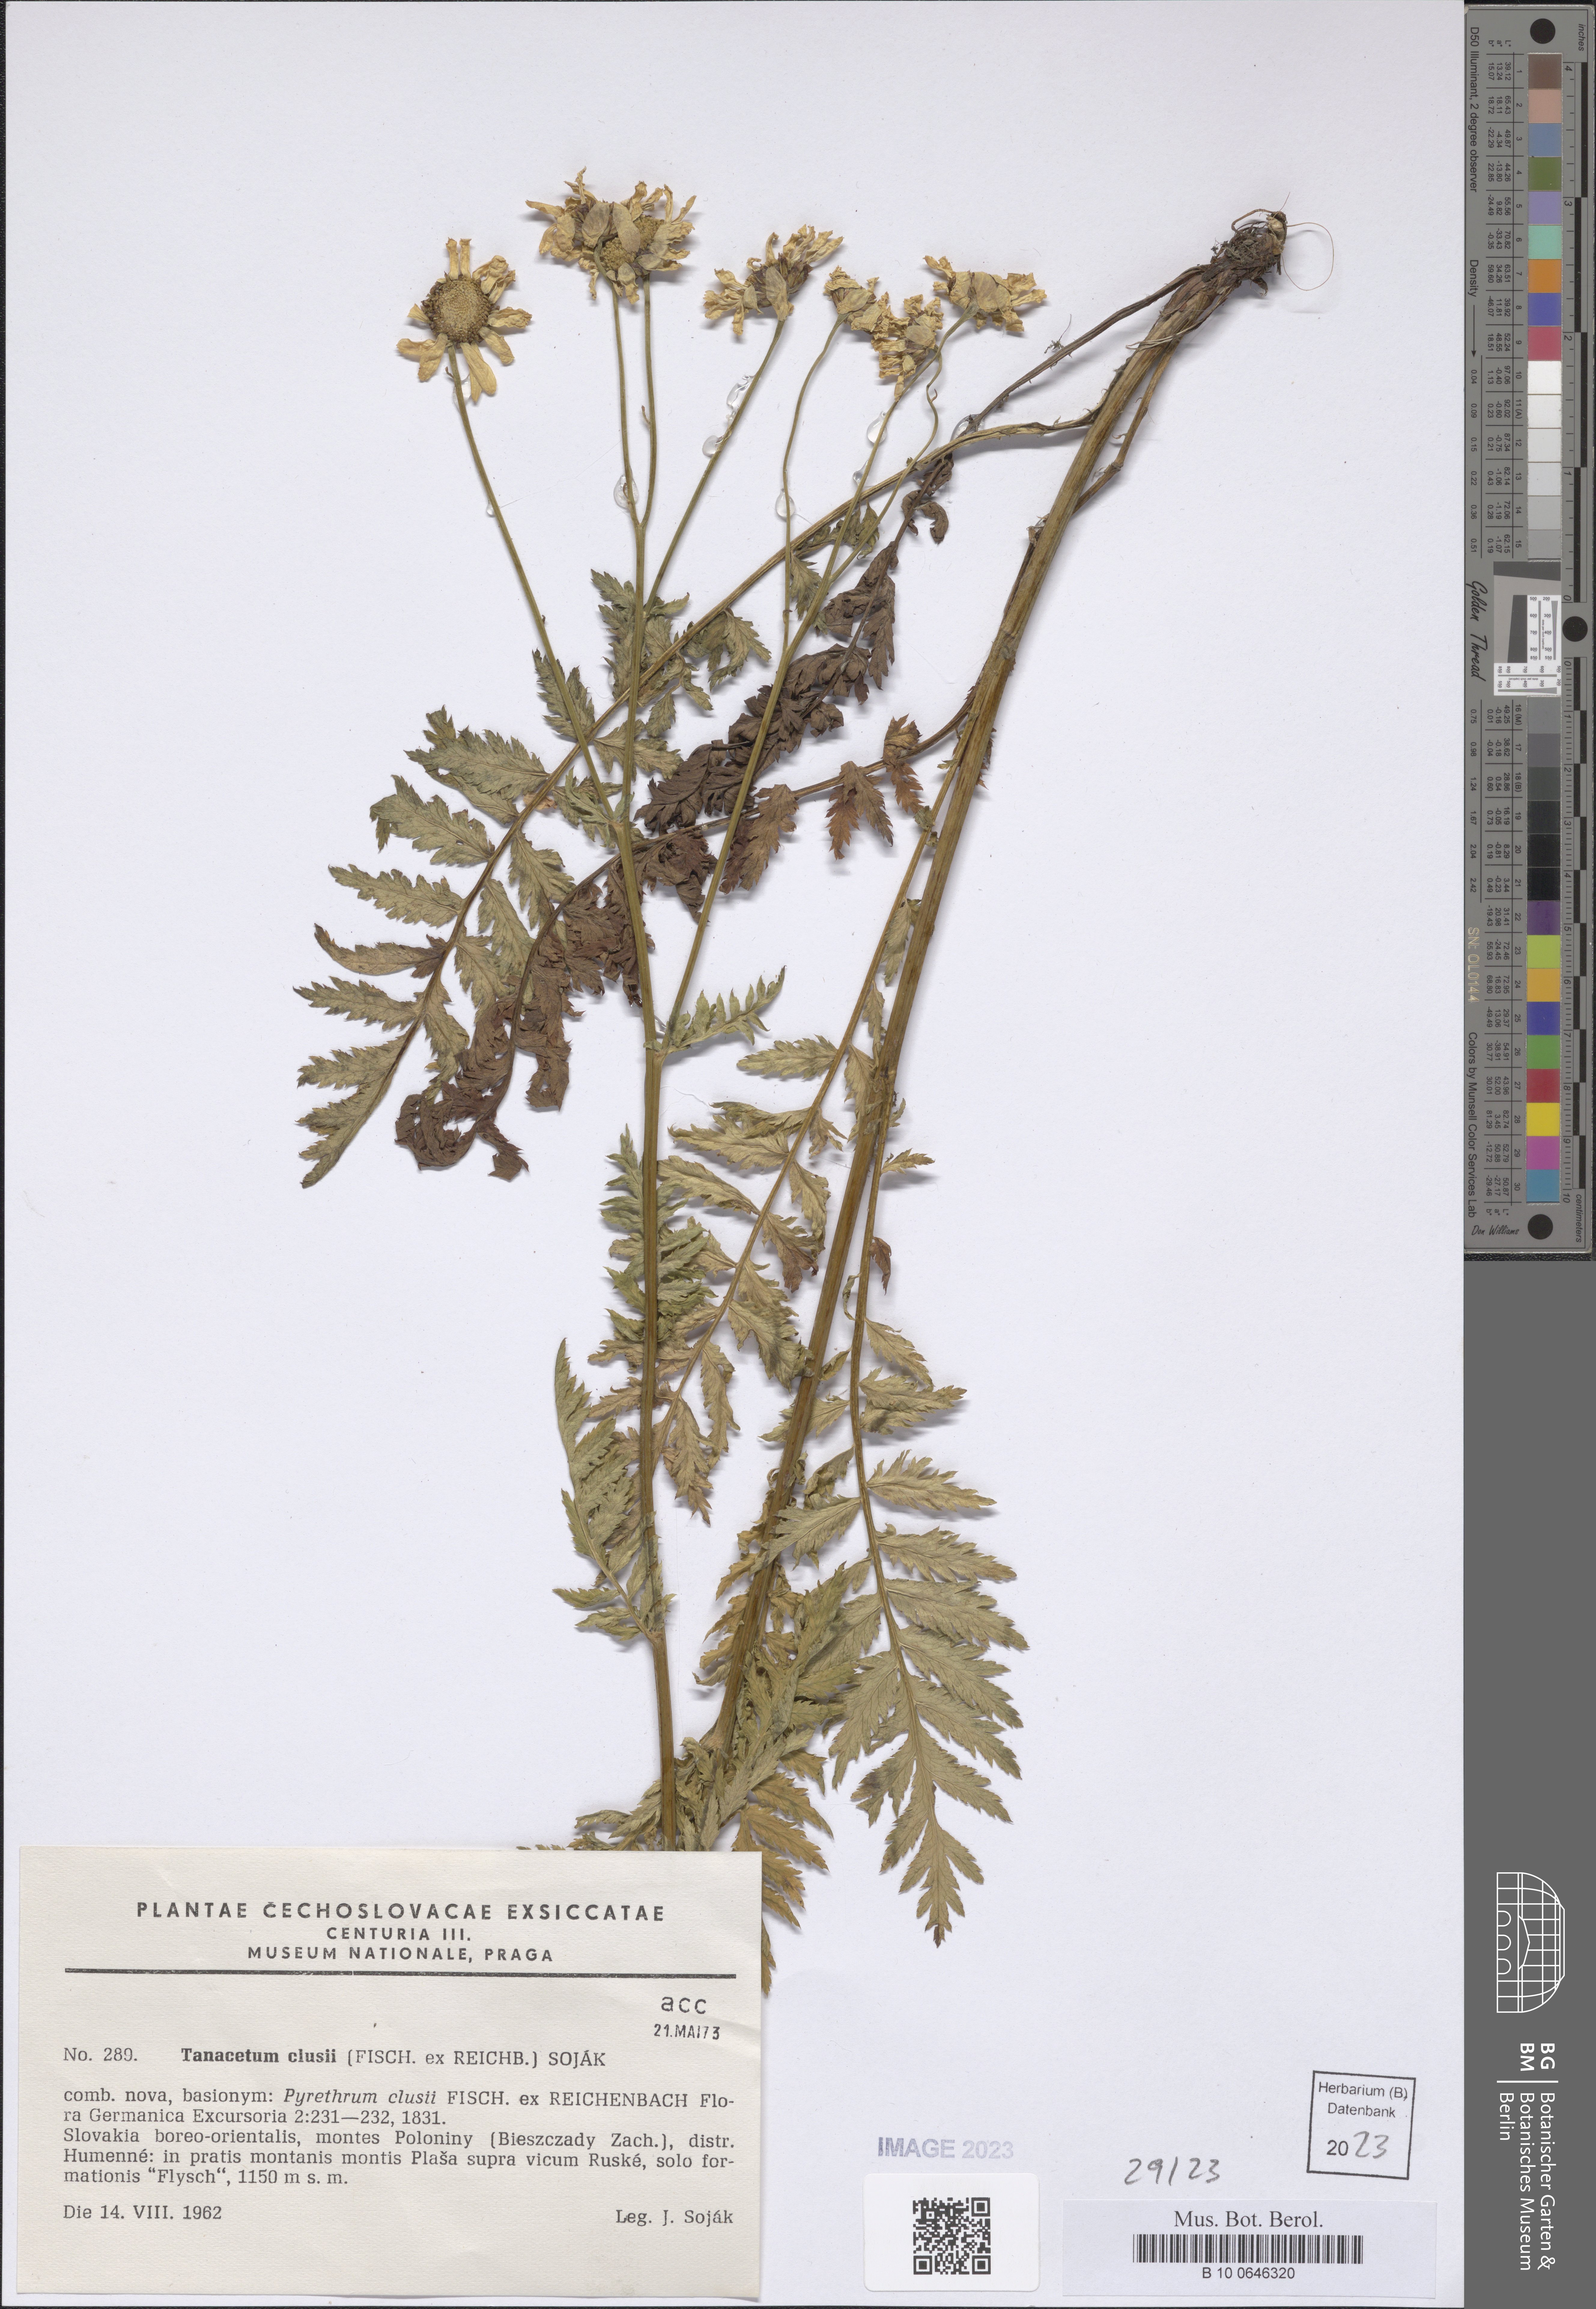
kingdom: Plantae
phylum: Tracheophyta
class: Magnoliopsida
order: Asterales
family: Asteraceae
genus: Tanacetum
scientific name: Tanacetum corymbosum
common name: Scentless feverfew
